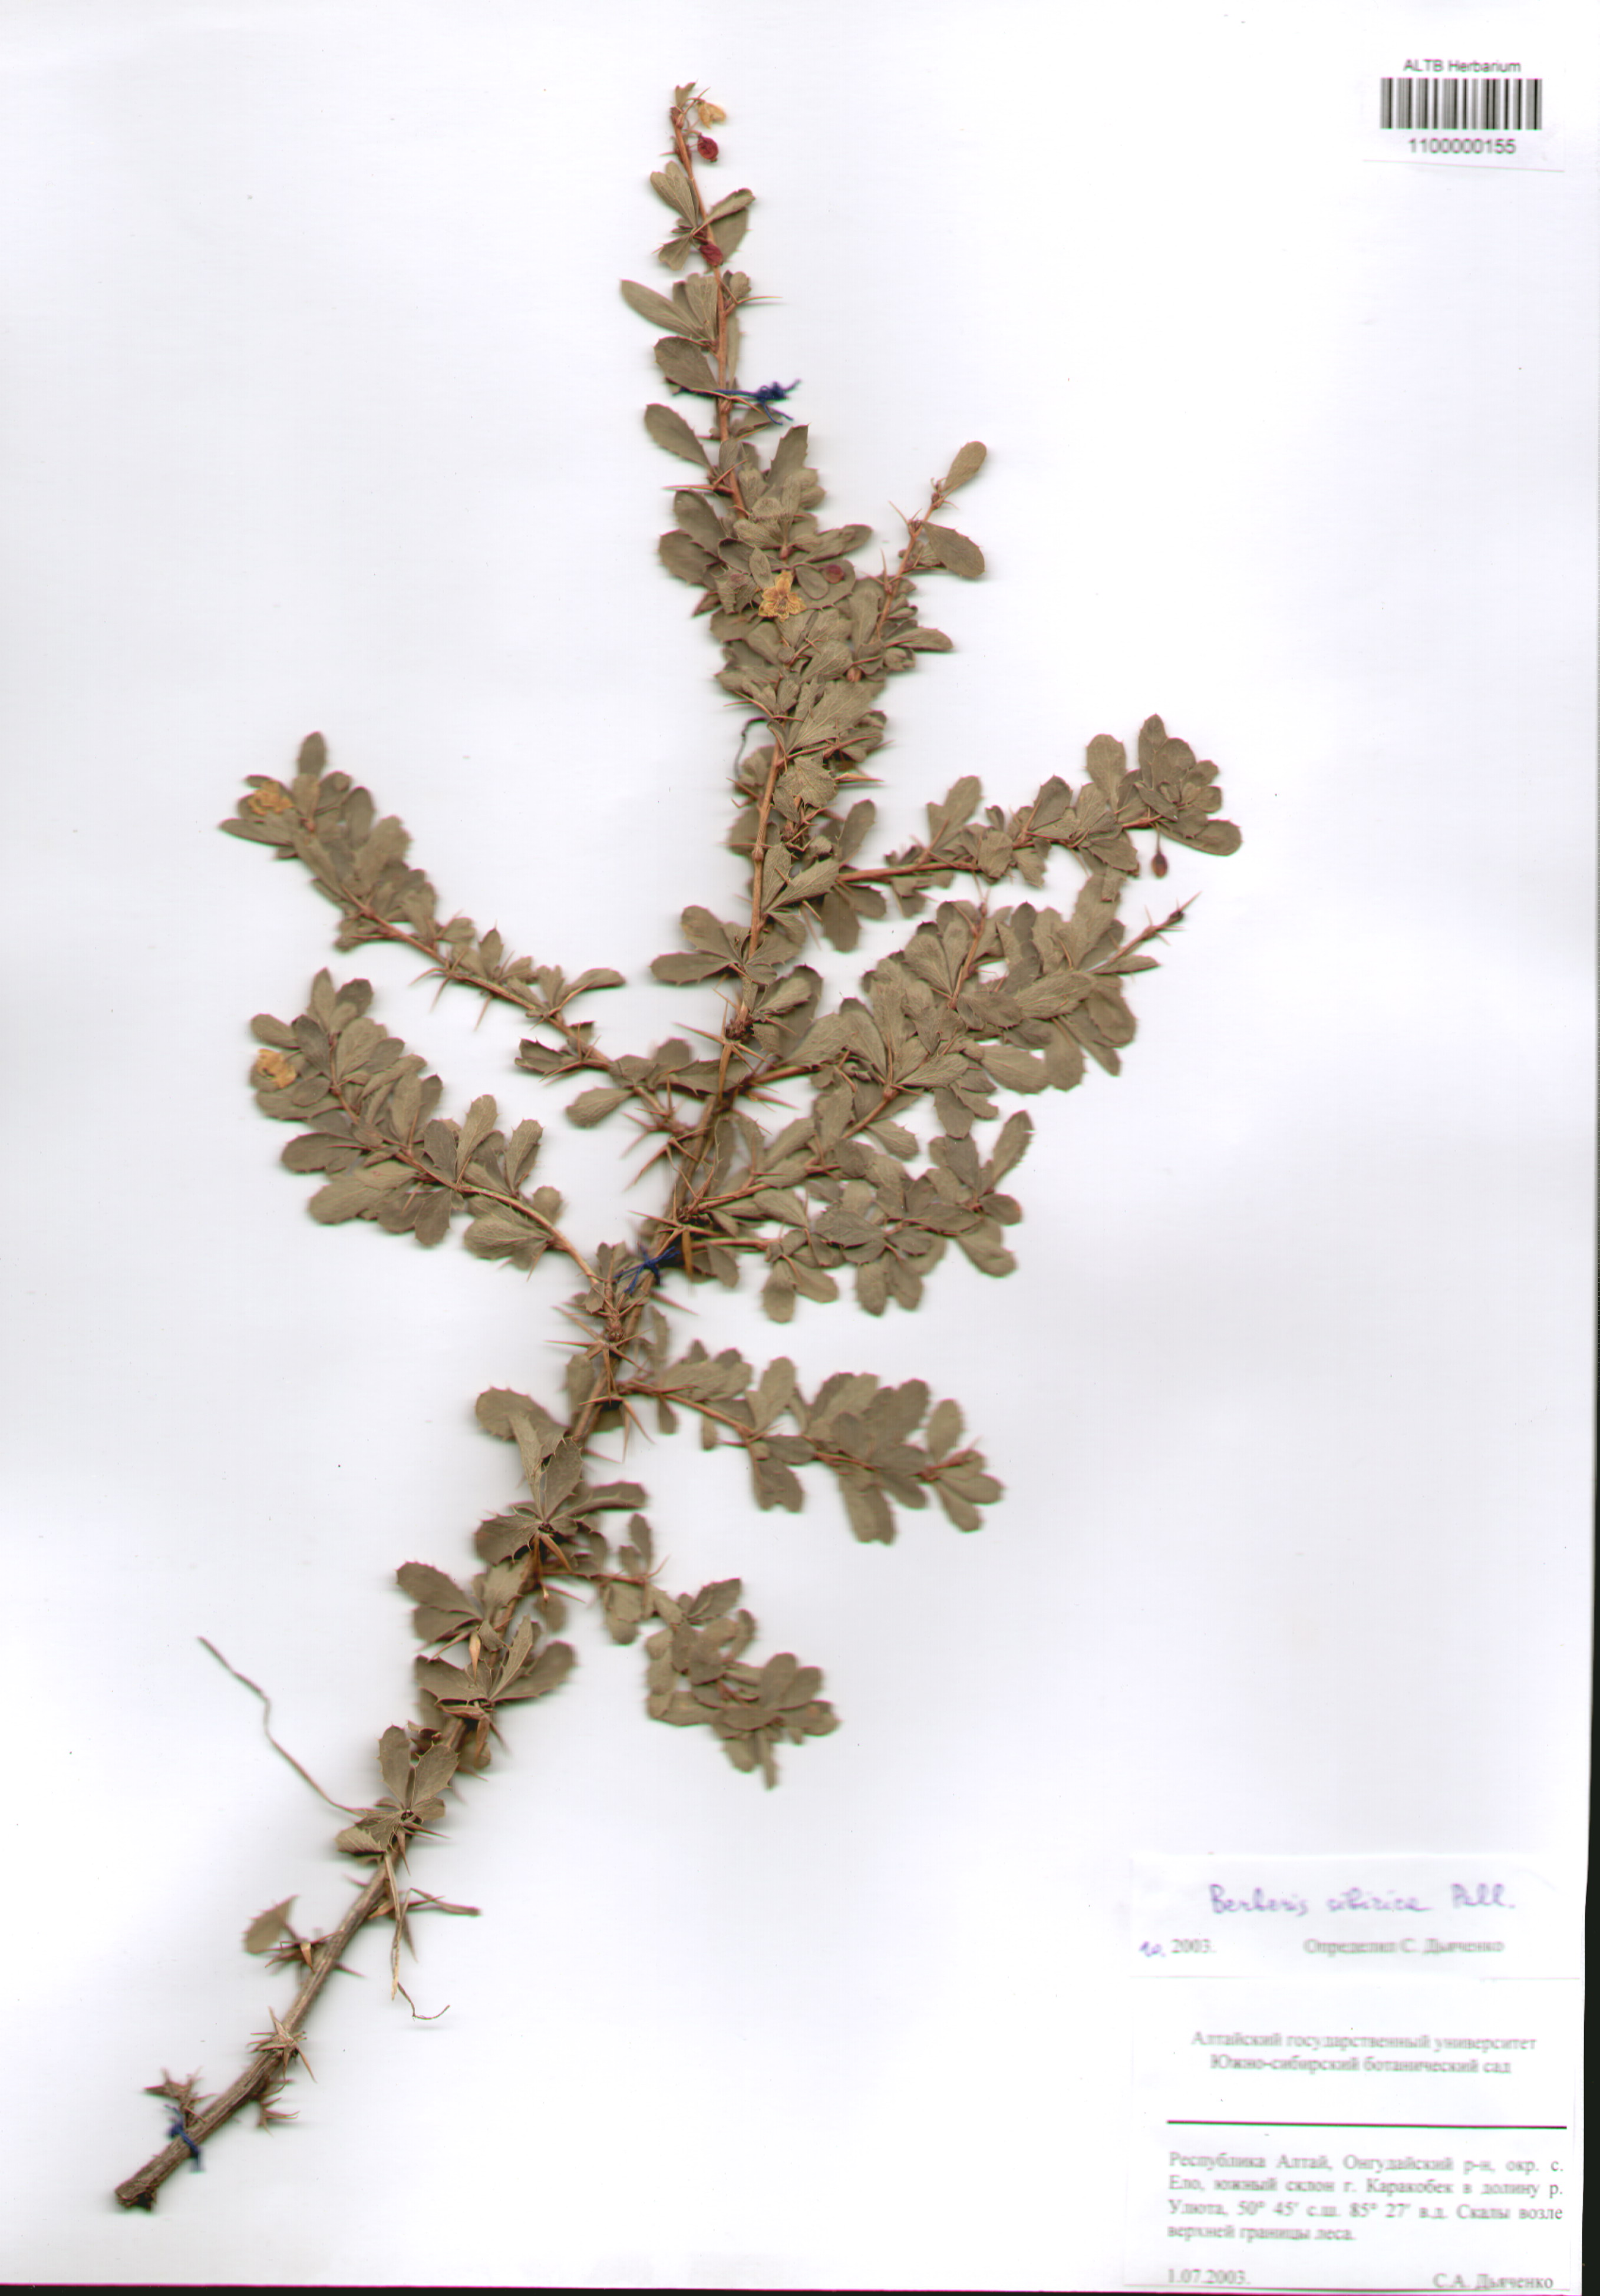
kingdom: Plantae
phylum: Tracheophyta
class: Magnoliopsida
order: Ranunculales
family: Berberidaceae
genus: Berberis
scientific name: Berberis sibirica
